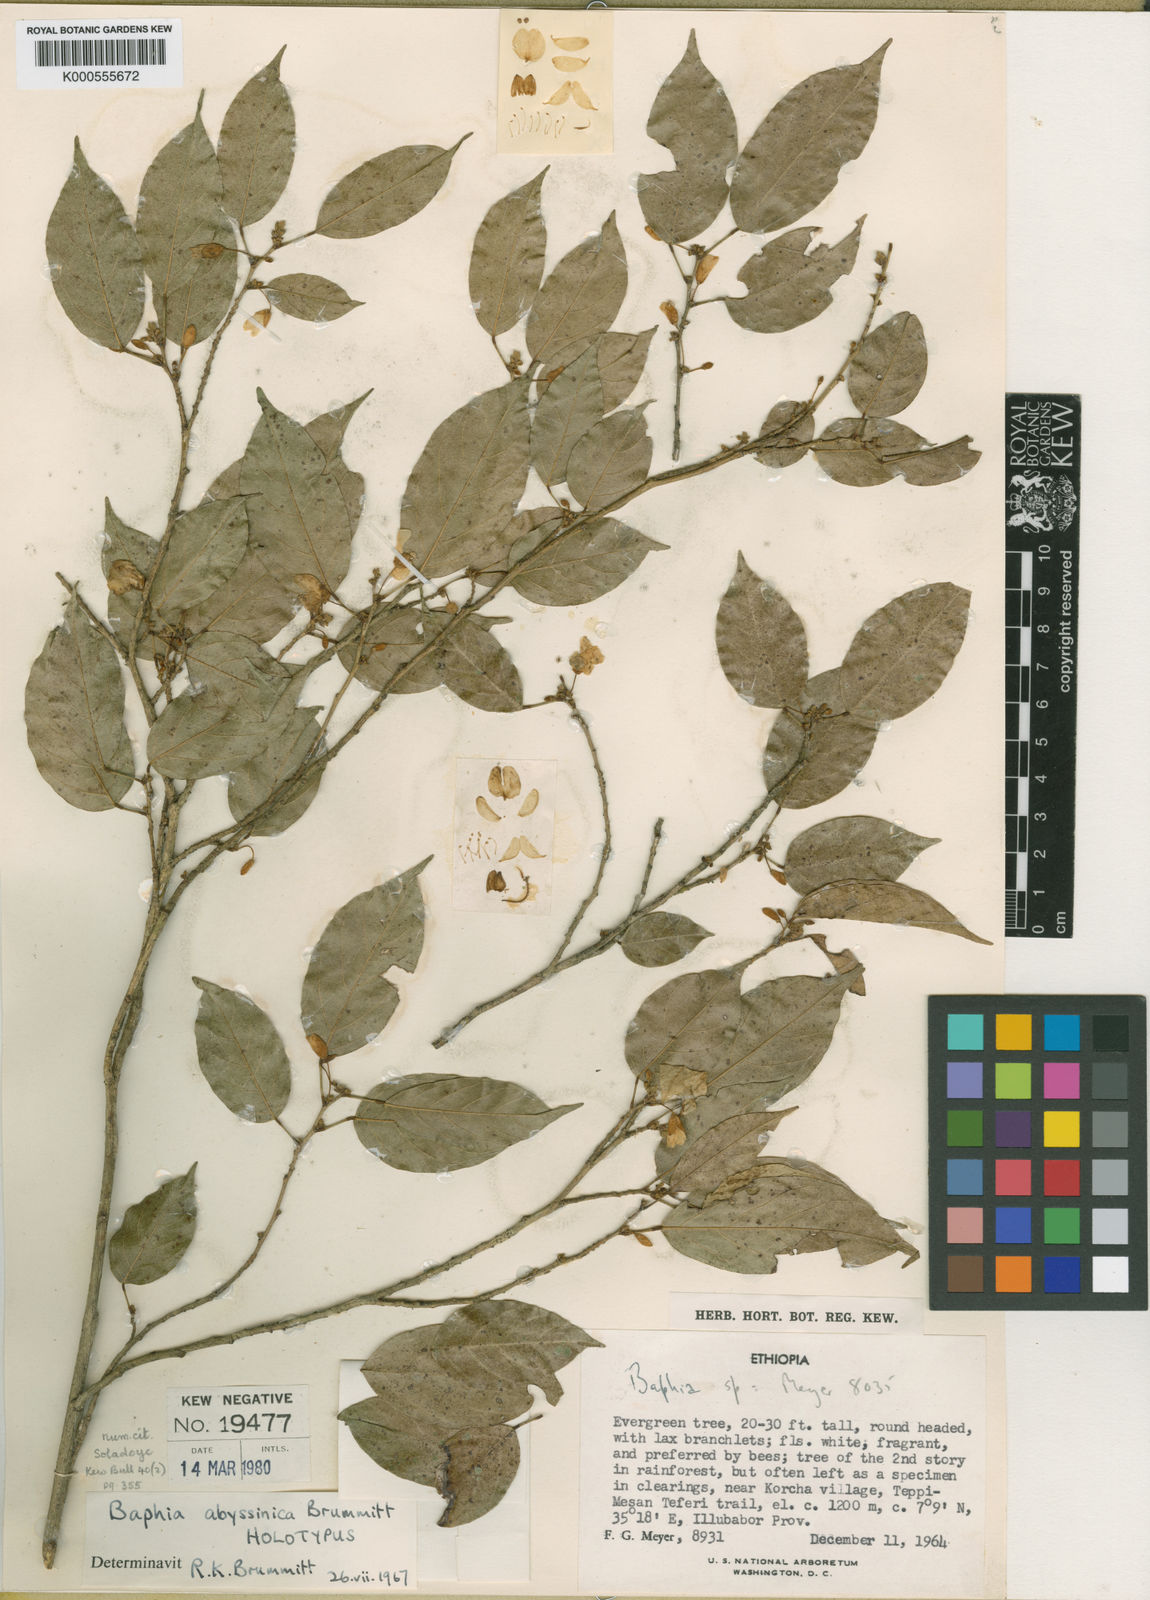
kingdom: Plantae
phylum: Tracheophyta
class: Magnoliopsida
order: Fabales
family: Fabaceae
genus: Baphia
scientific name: Baphia abyssinica
